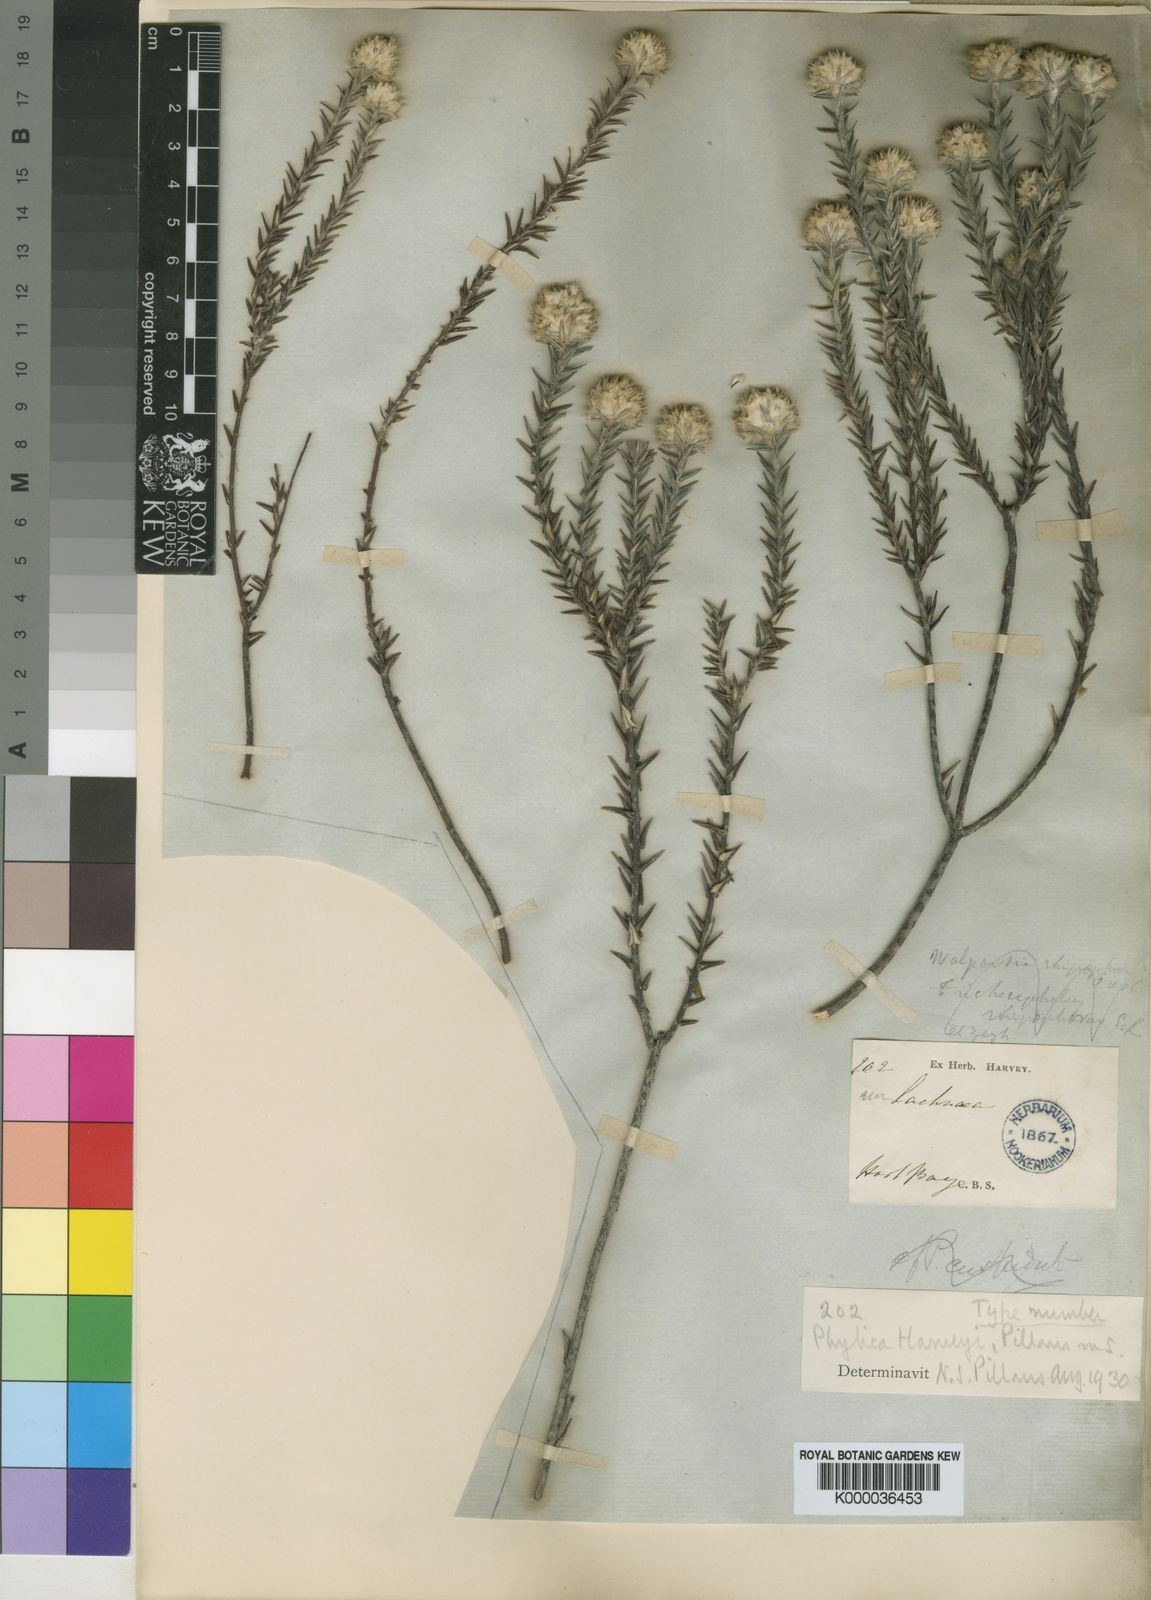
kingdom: Plantae
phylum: Tracheophyta
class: Magnoliopsida
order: Rosales
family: Rhamnaceae
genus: Phylica
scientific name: Phylica harveyi
